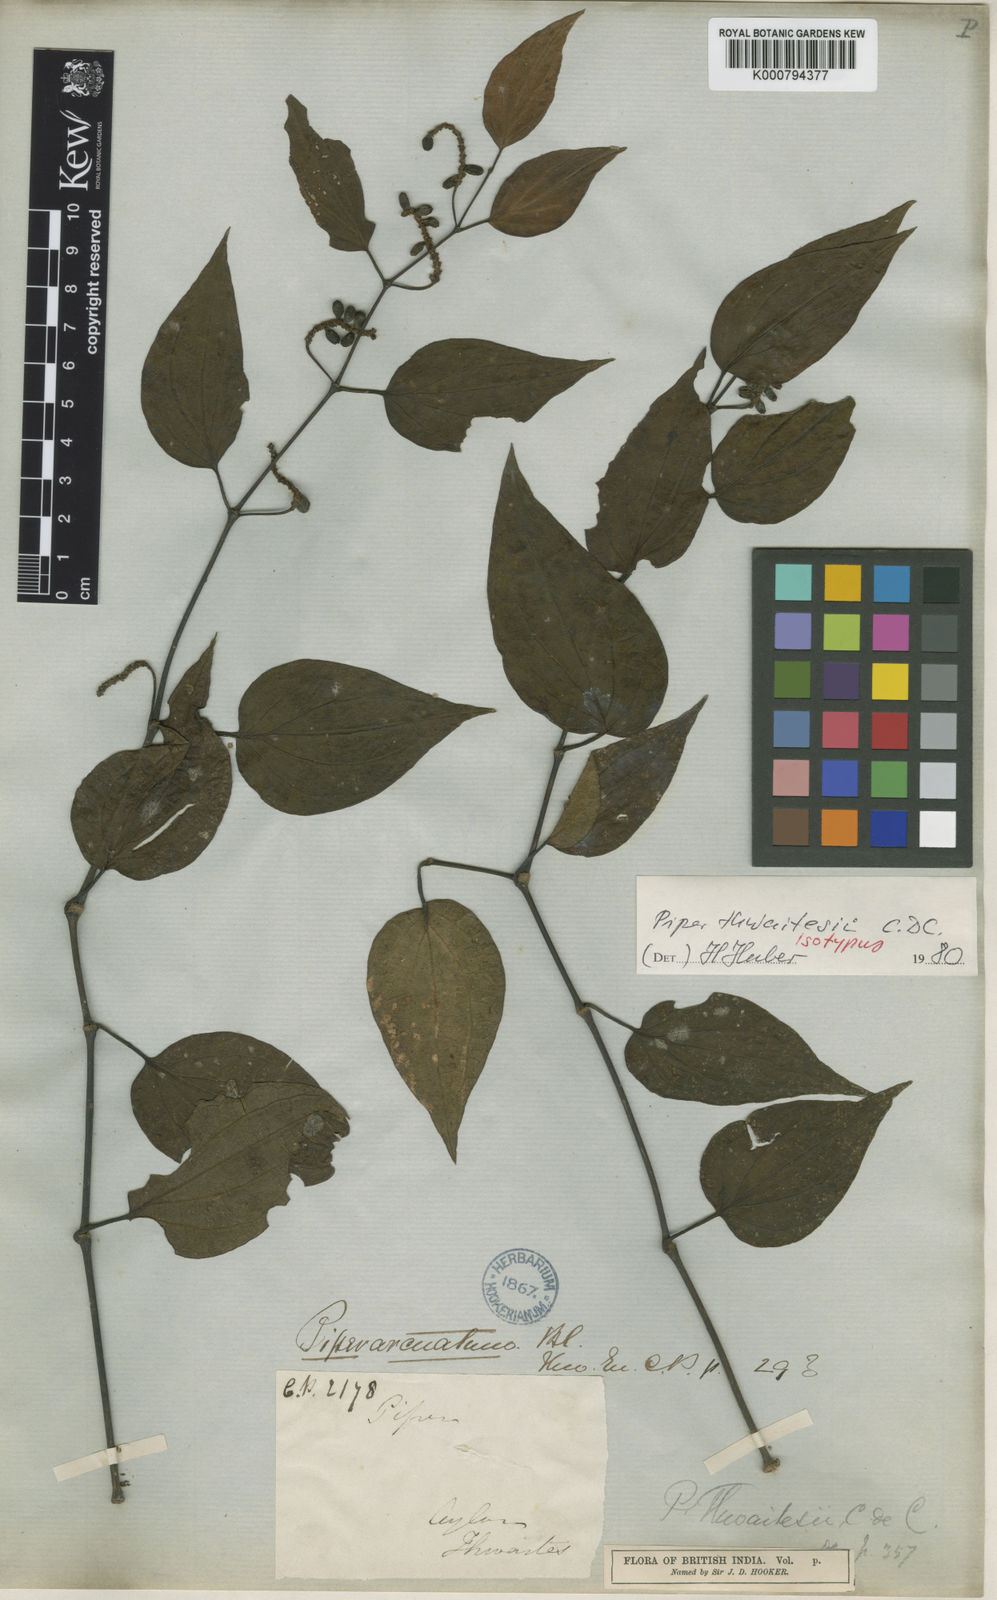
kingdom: Plantae
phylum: Tracheophyta
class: Magnoliopsida
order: Piperales
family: Piperaceae
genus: Piper
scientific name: Piper lanatum
